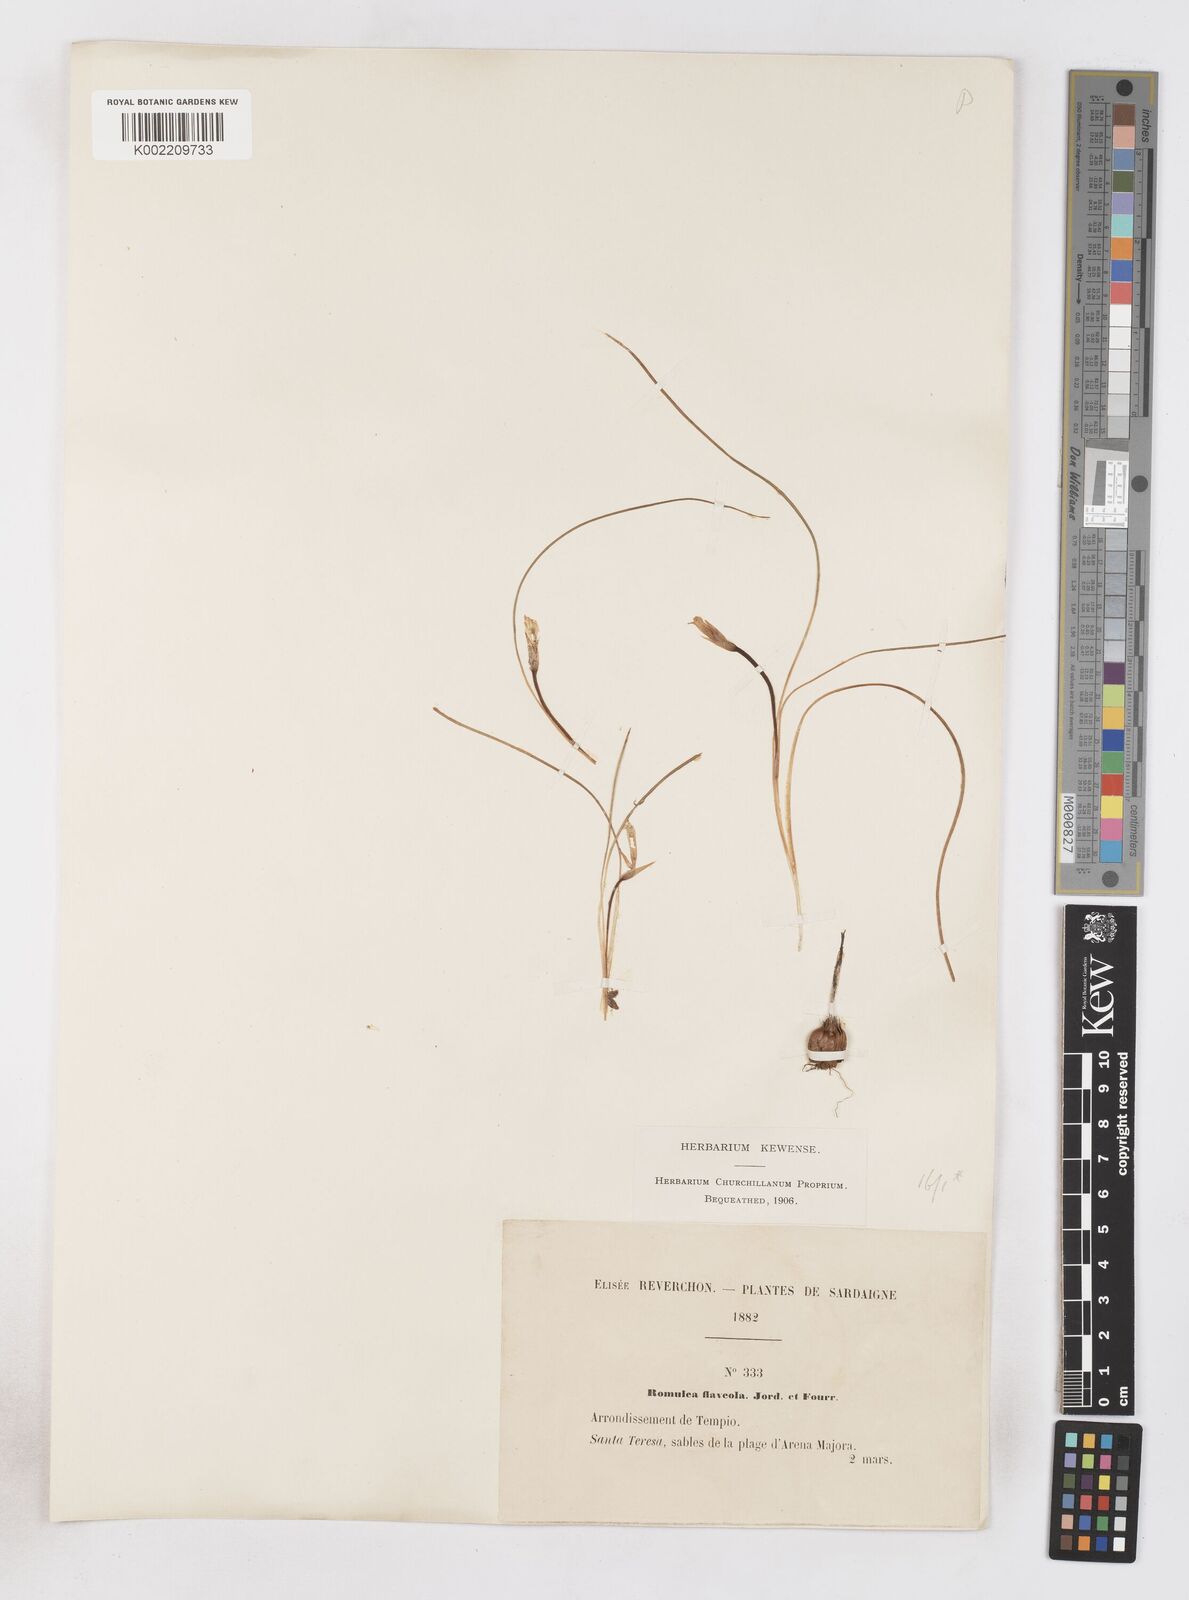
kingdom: Plantae
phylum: Tracheophyta
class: Liliopsida
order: Asparagales
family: Iridaceae
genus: Romulea
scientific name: Romulea columnae
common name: Sand-crocus
